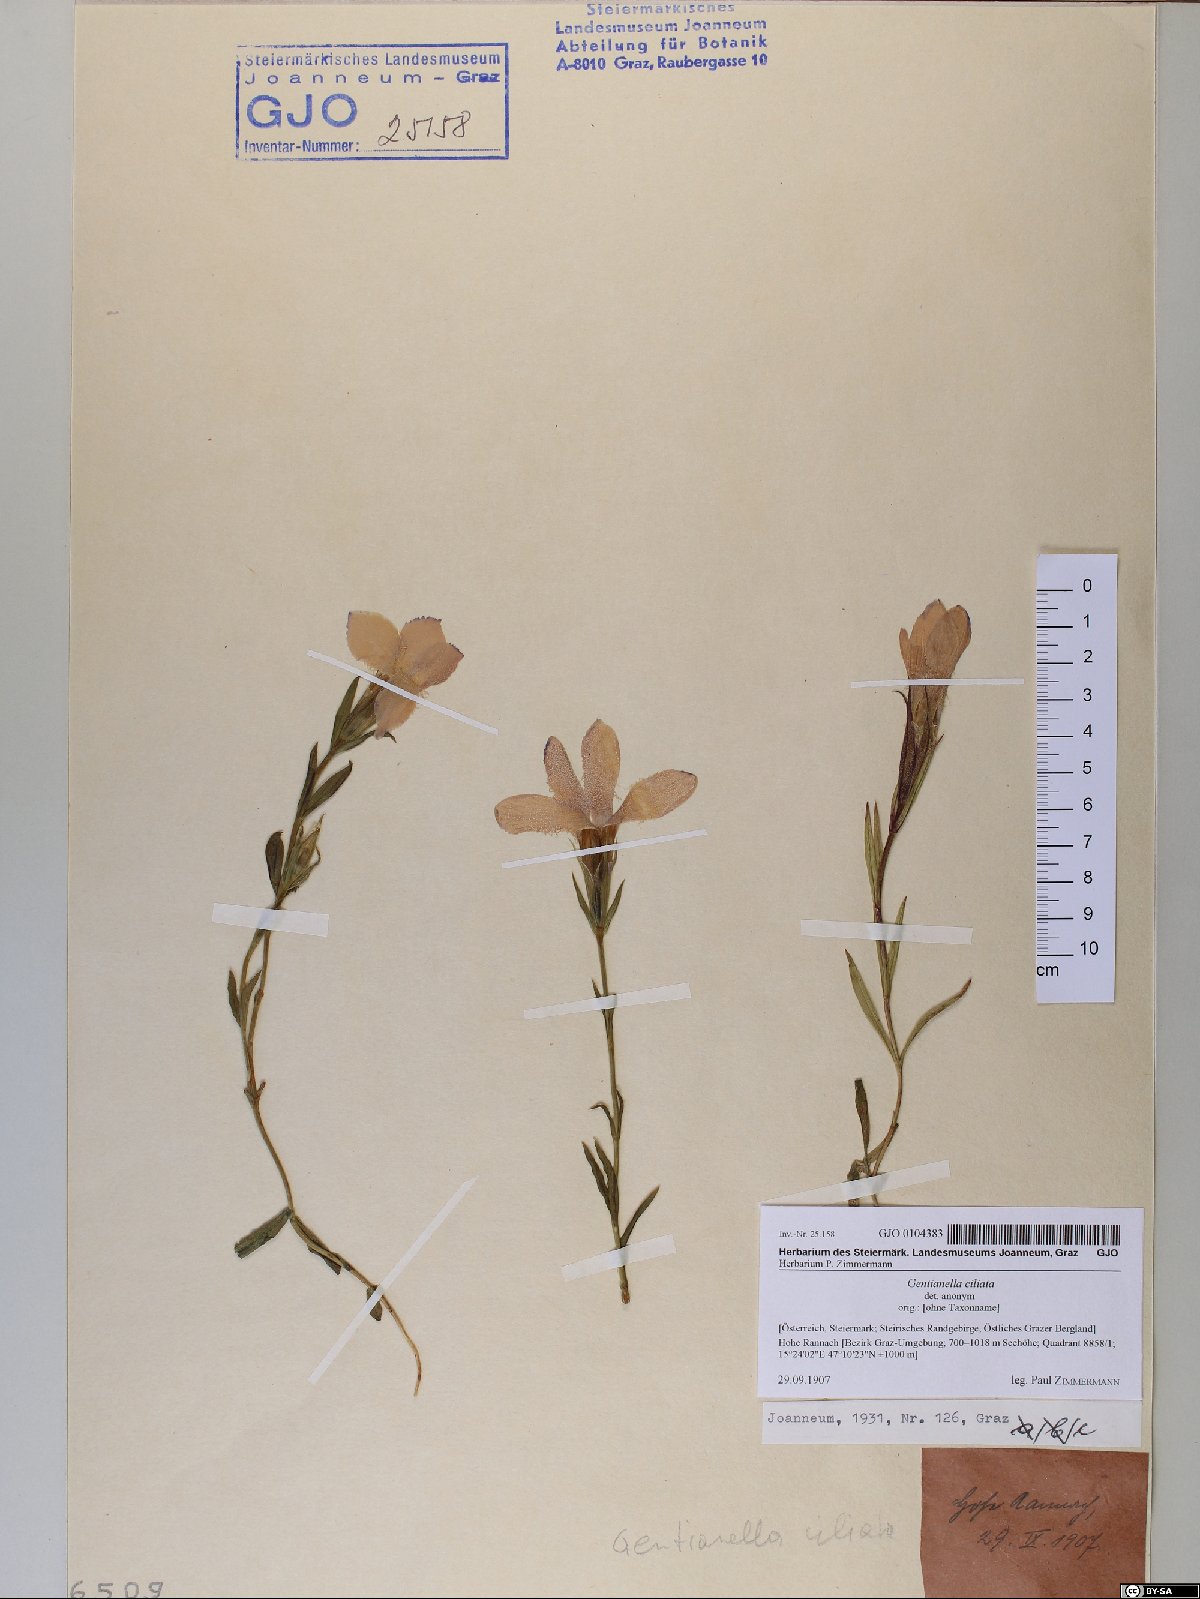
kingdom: Plantae
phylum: Tracheophyta
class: Magnoliopsida
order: Gentianales
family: Gentianaceae
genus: Gentianopsis
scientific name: Gentianopsis ciliata
